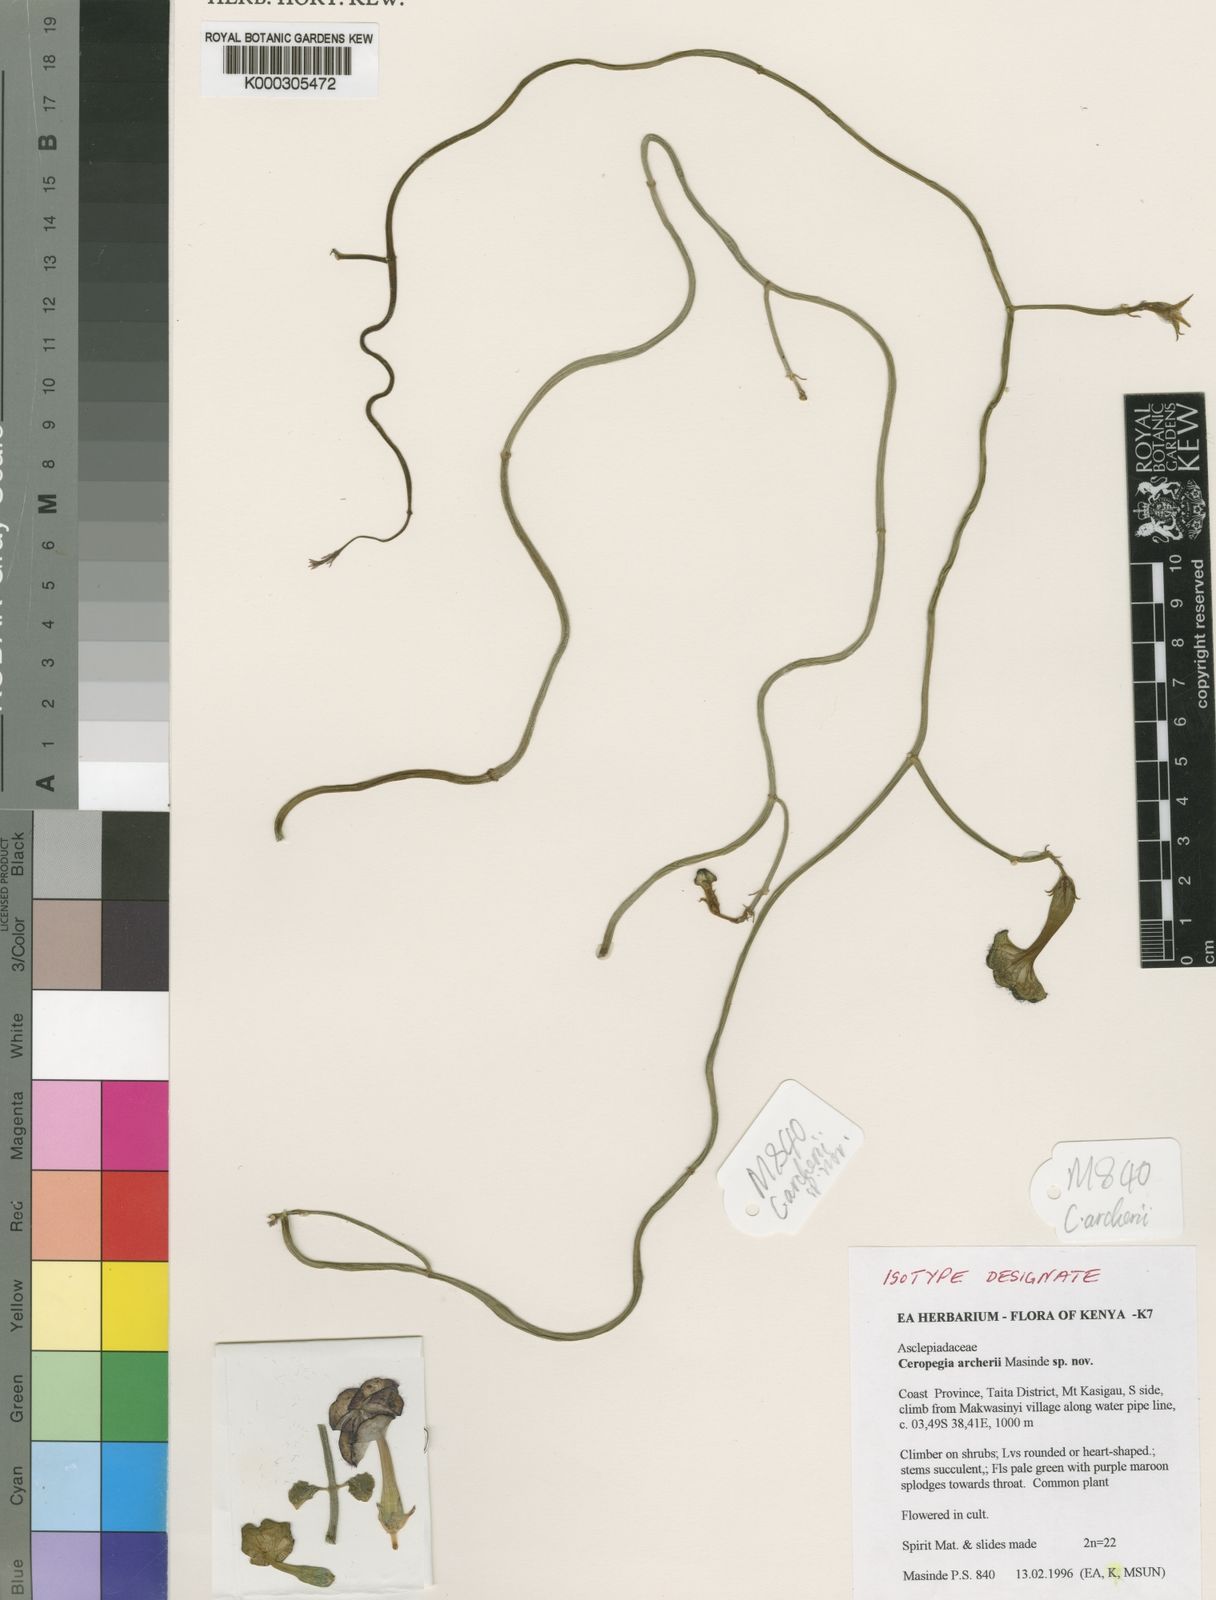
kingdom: Plantae
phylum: Tracheophyta
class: Magnoliopsida
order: Gentianales
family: Apocynaceae
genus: Ceropegia
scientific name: Ceropegia nilotica
